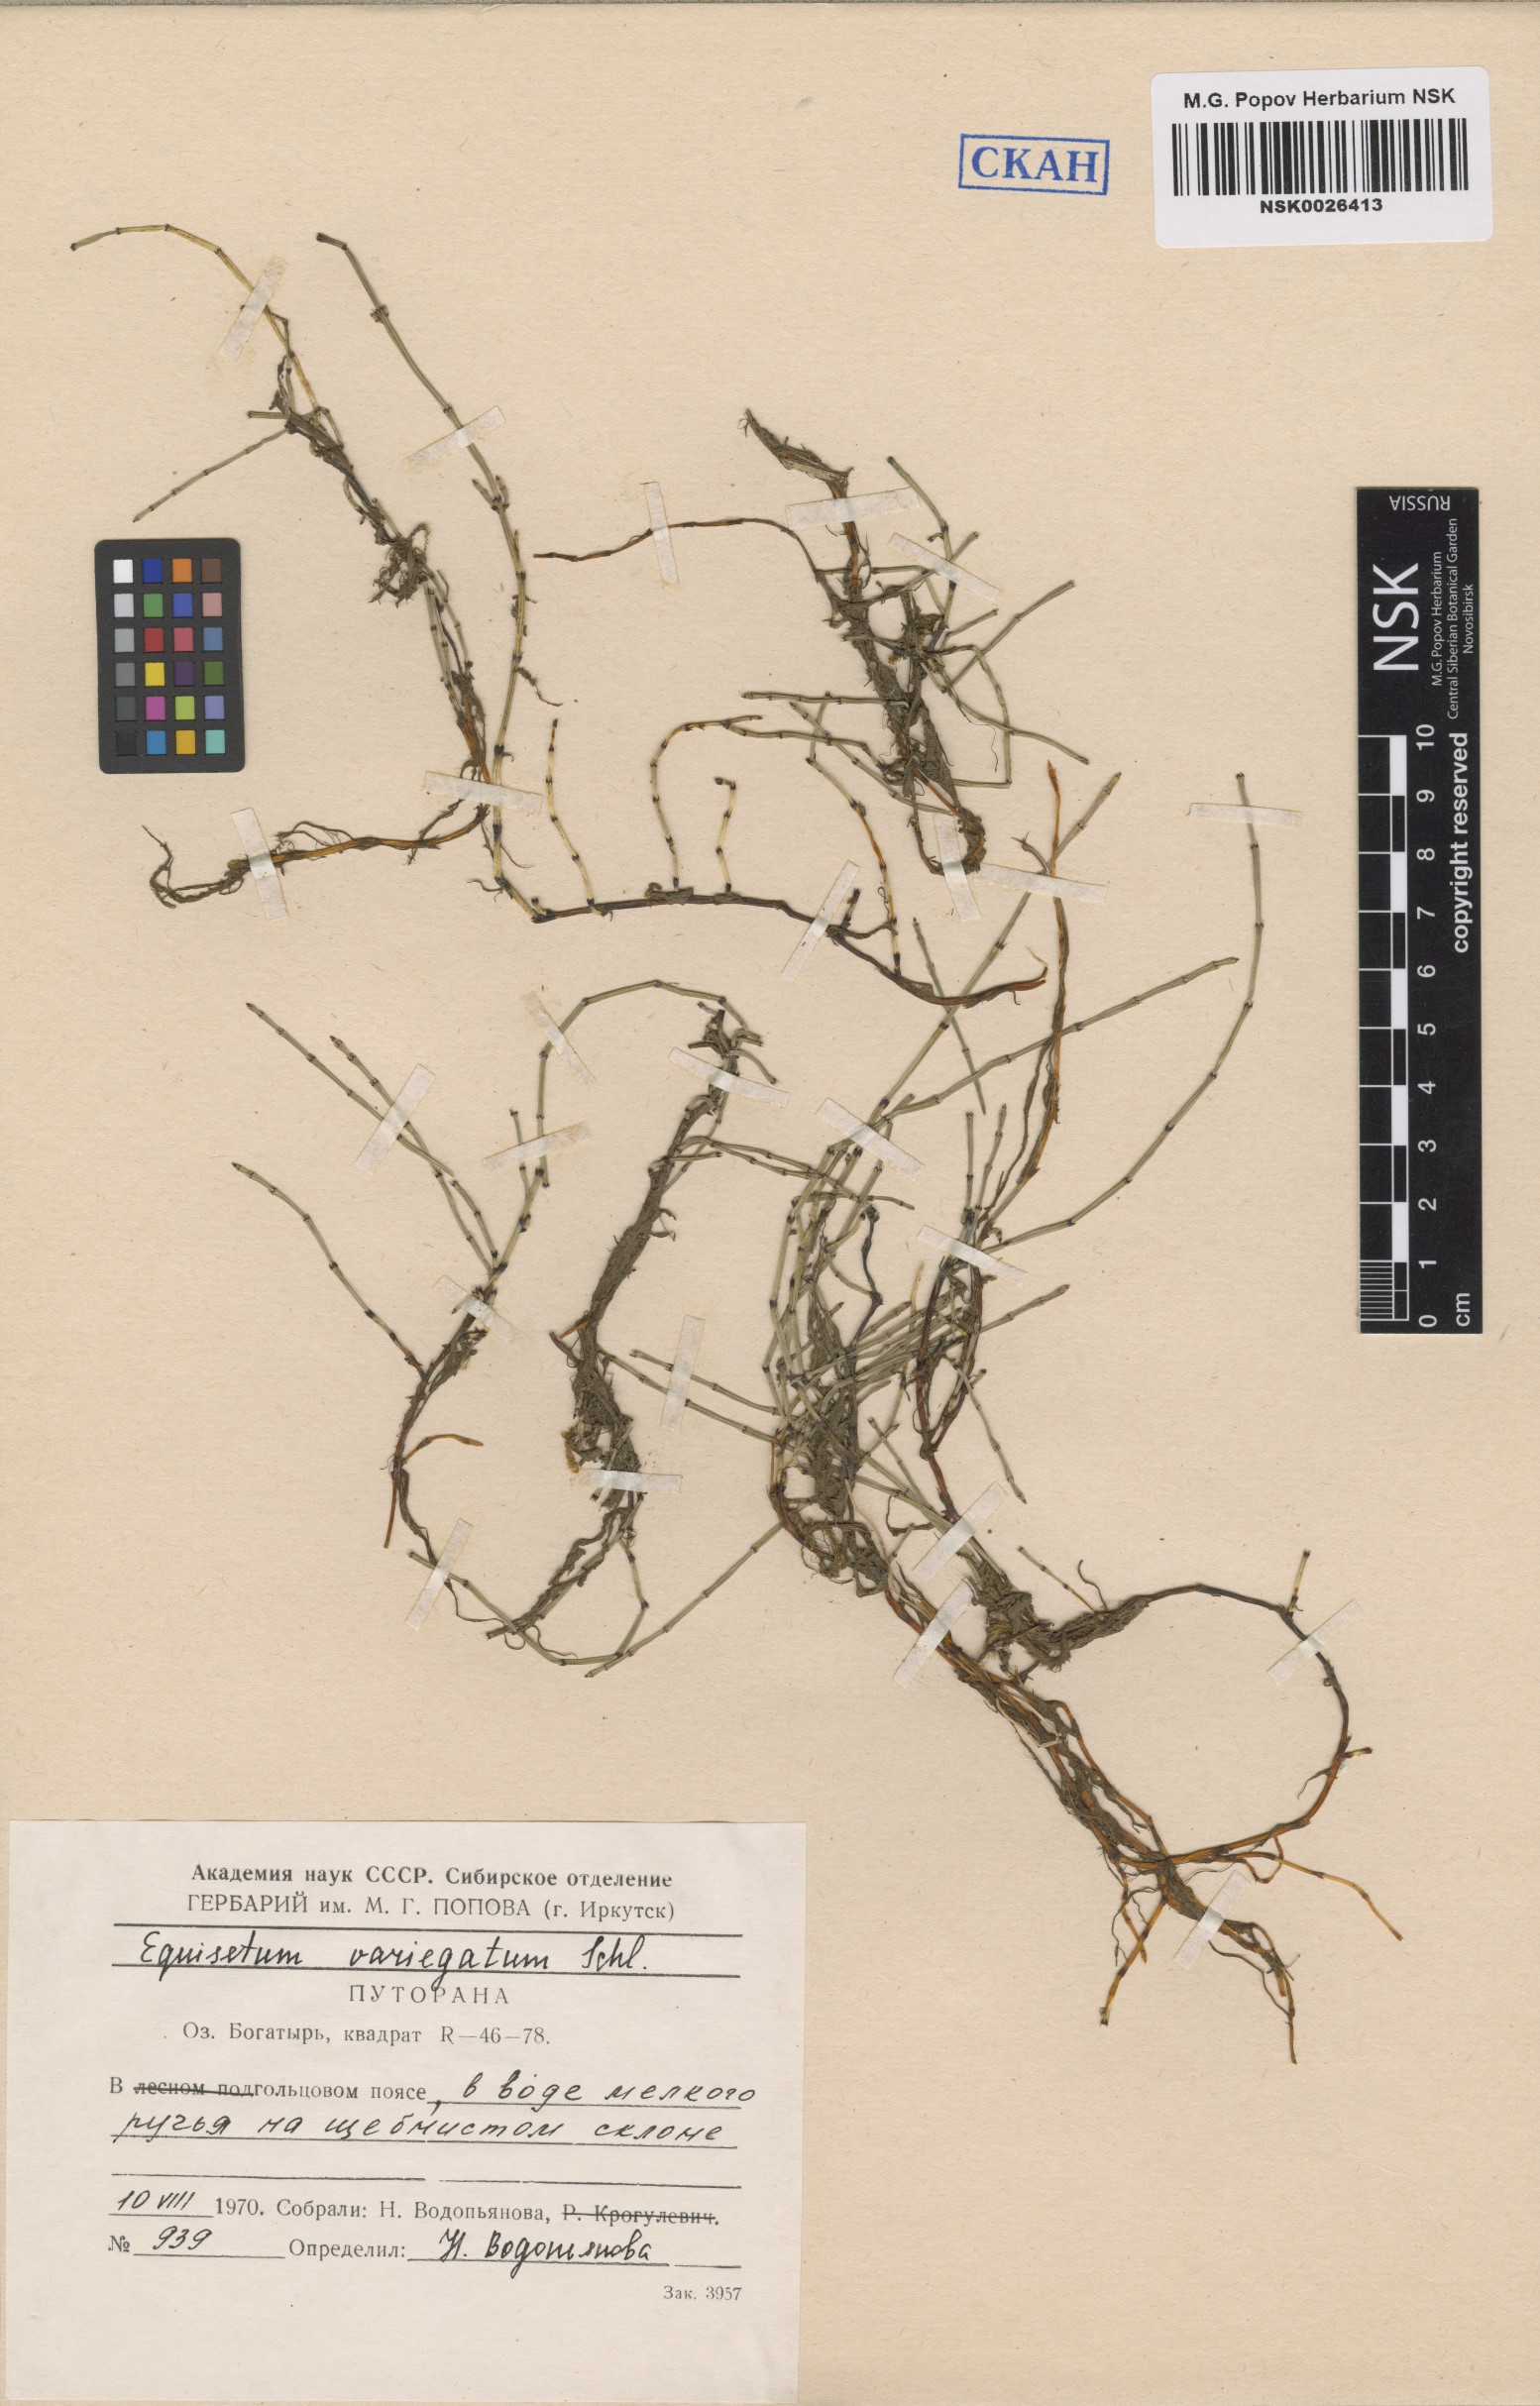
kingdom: Plantae
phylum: Tracheophyta
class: Polypodiopsida
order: Equisetales
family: Equisetaceae
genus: Equisetum
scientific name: Equisetum variegatum
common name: Variegated horsetail
